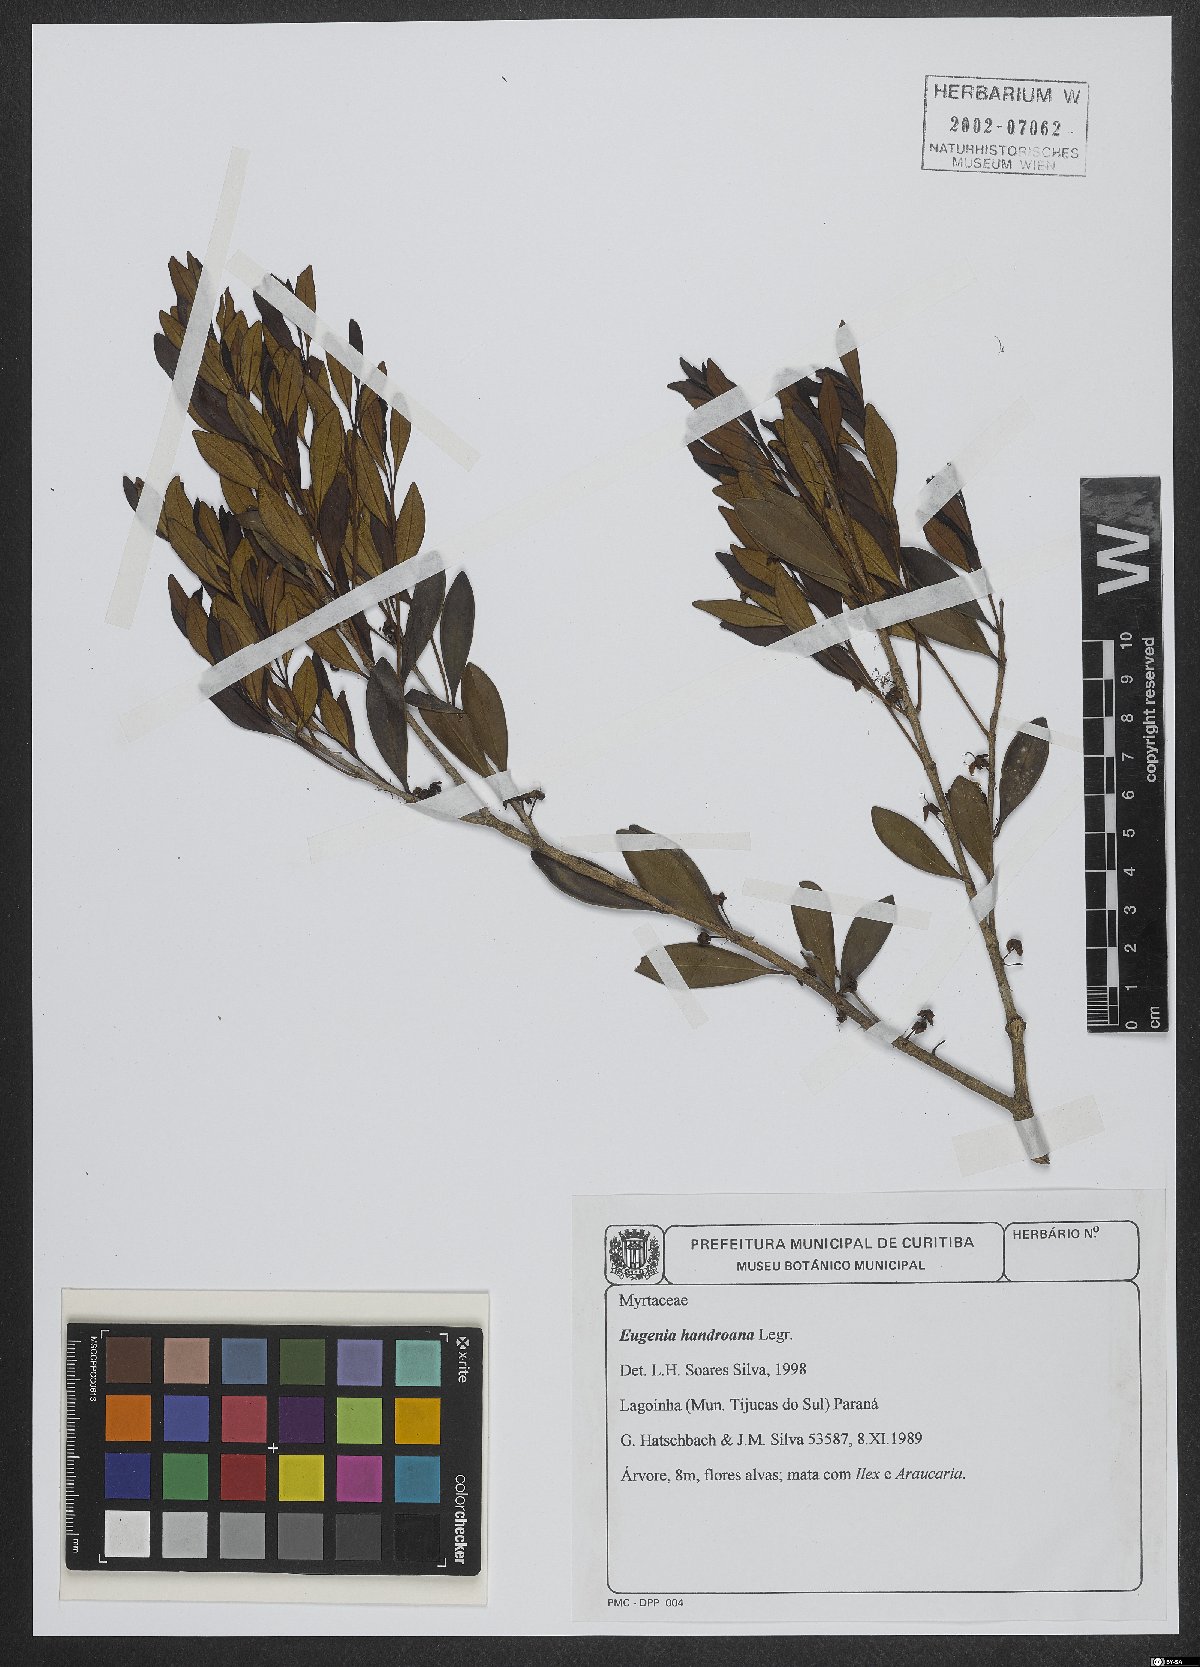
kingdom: Plantae
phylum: Tracheophyta
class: Magnoliopsida
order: Myrtales
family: Myrtaceae
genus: Eugenia
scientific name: Eugenia handroana
